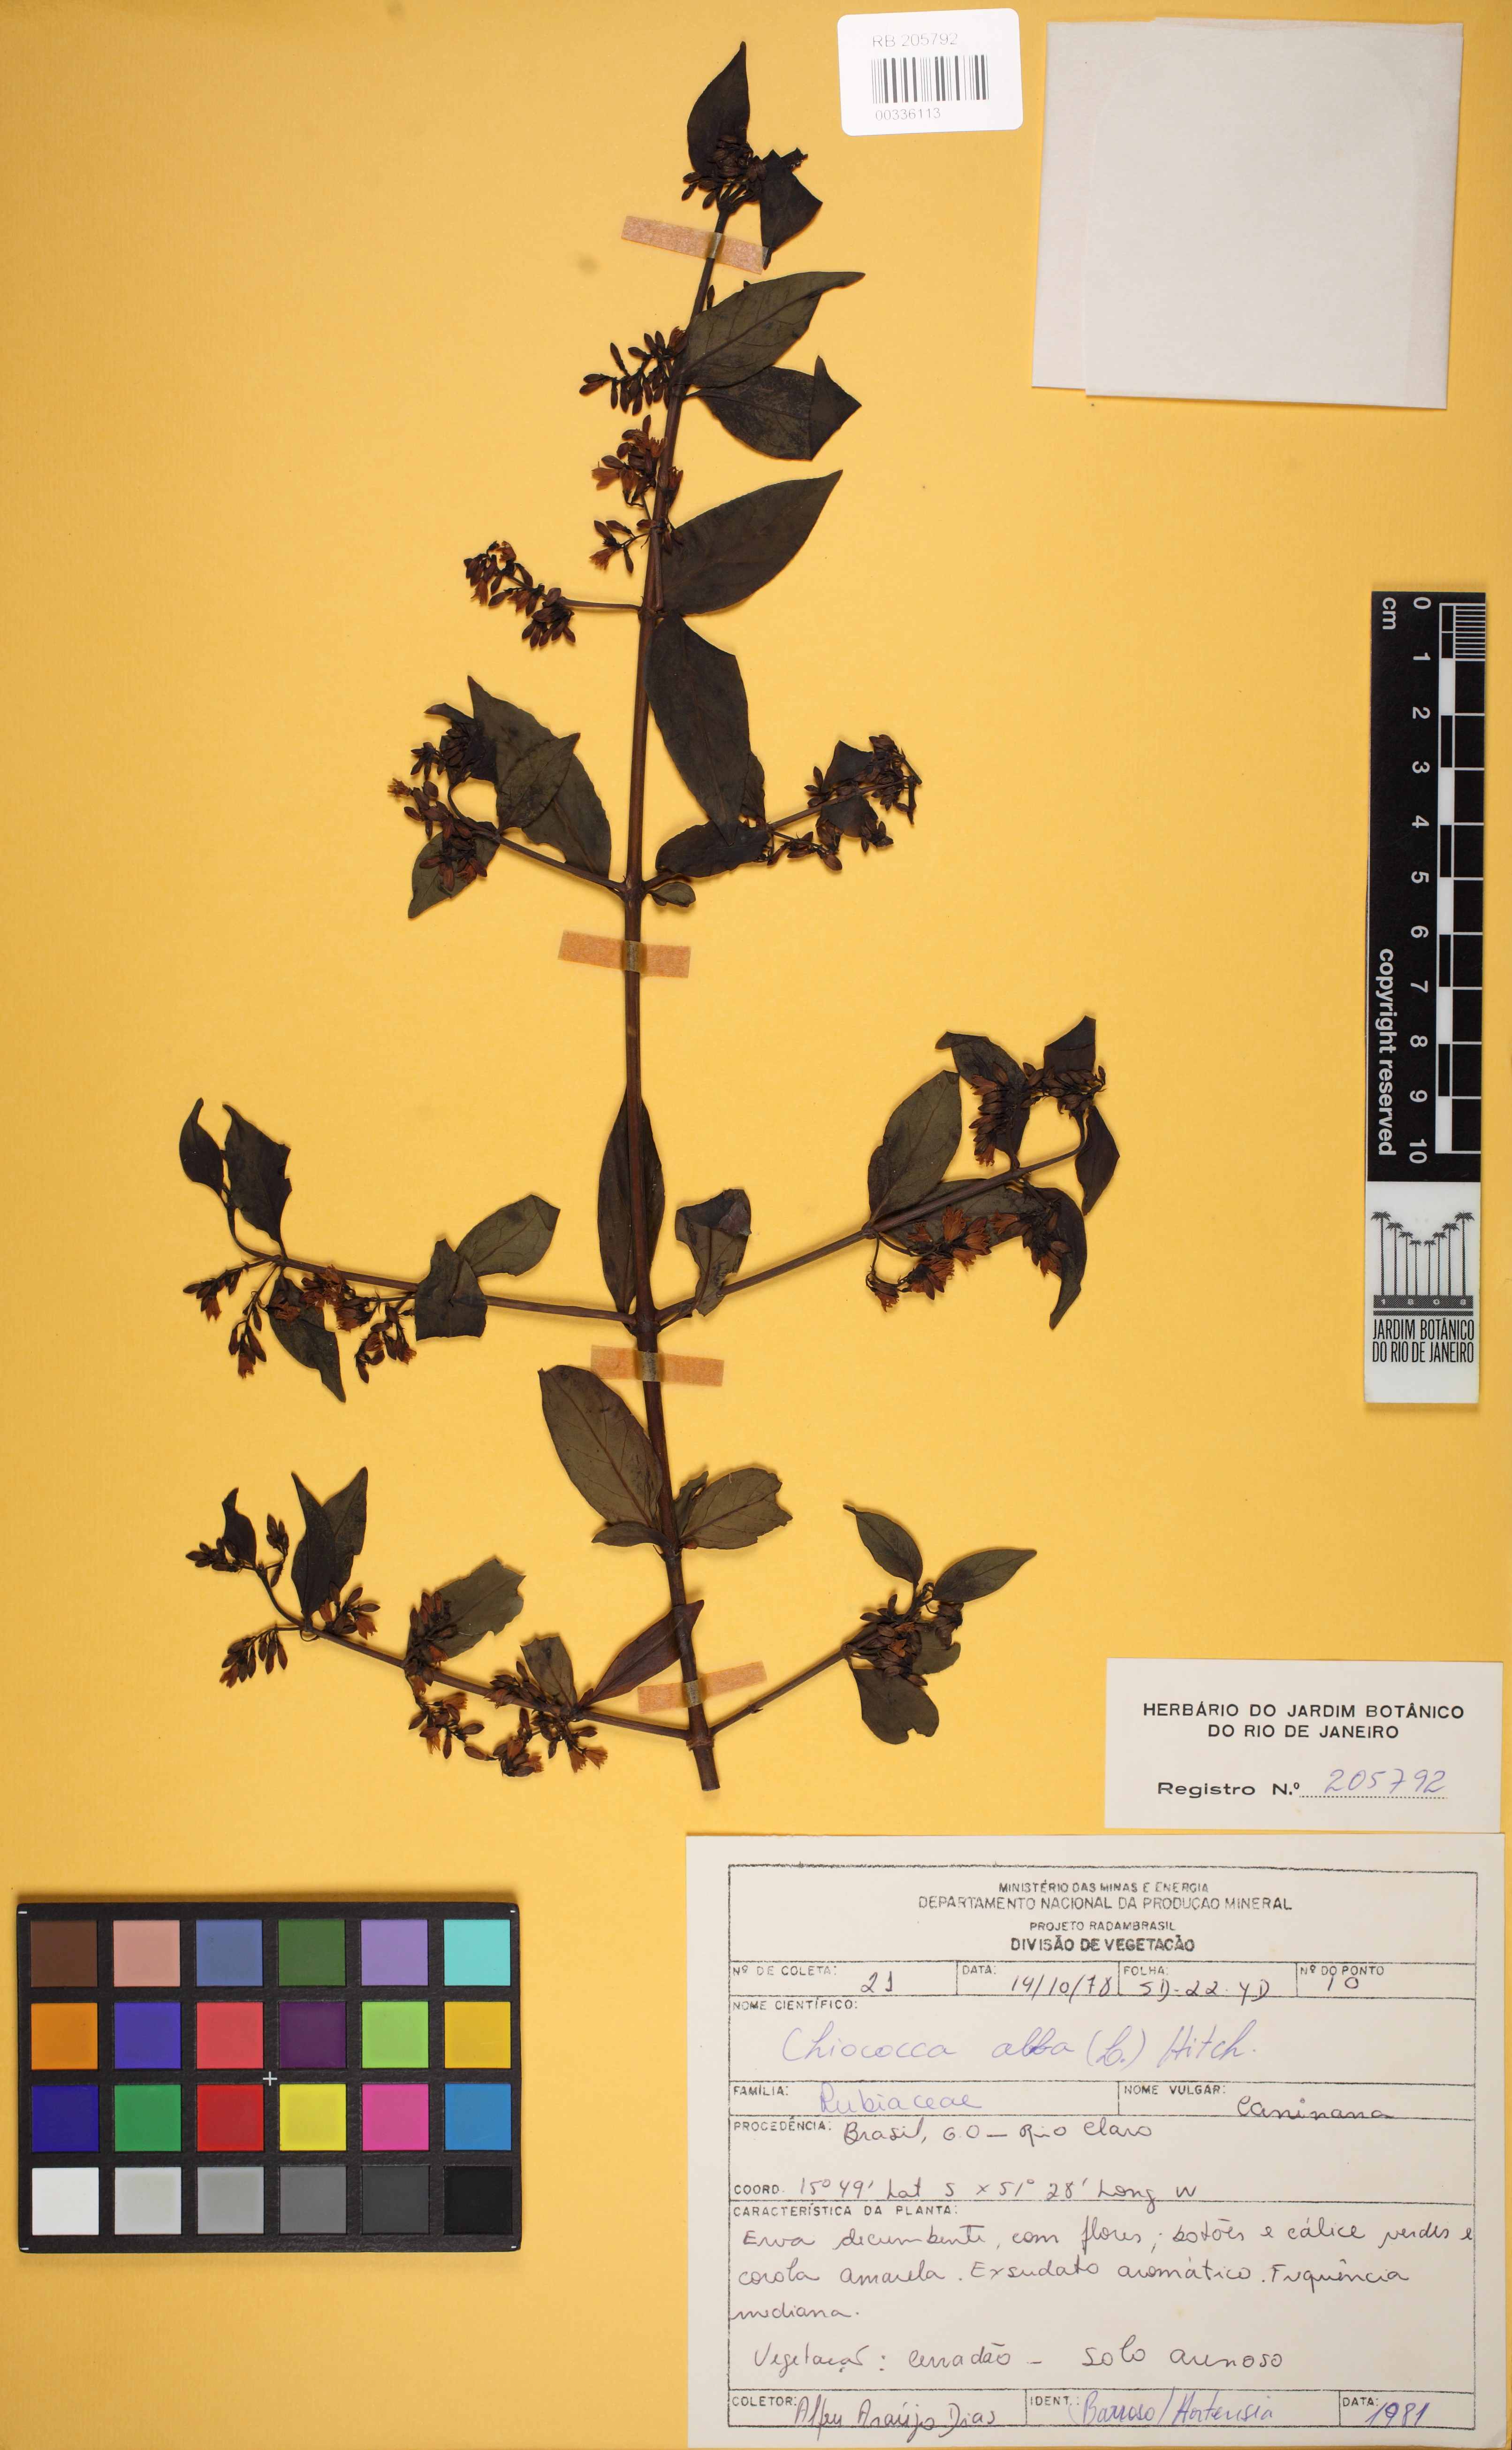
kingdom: Plantae
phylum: Tracheophyta
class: Magnoliopsida
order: Gentianales
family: Rubiaceae
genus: Chiococca
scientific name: Chiococca alba
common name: Snowberry
